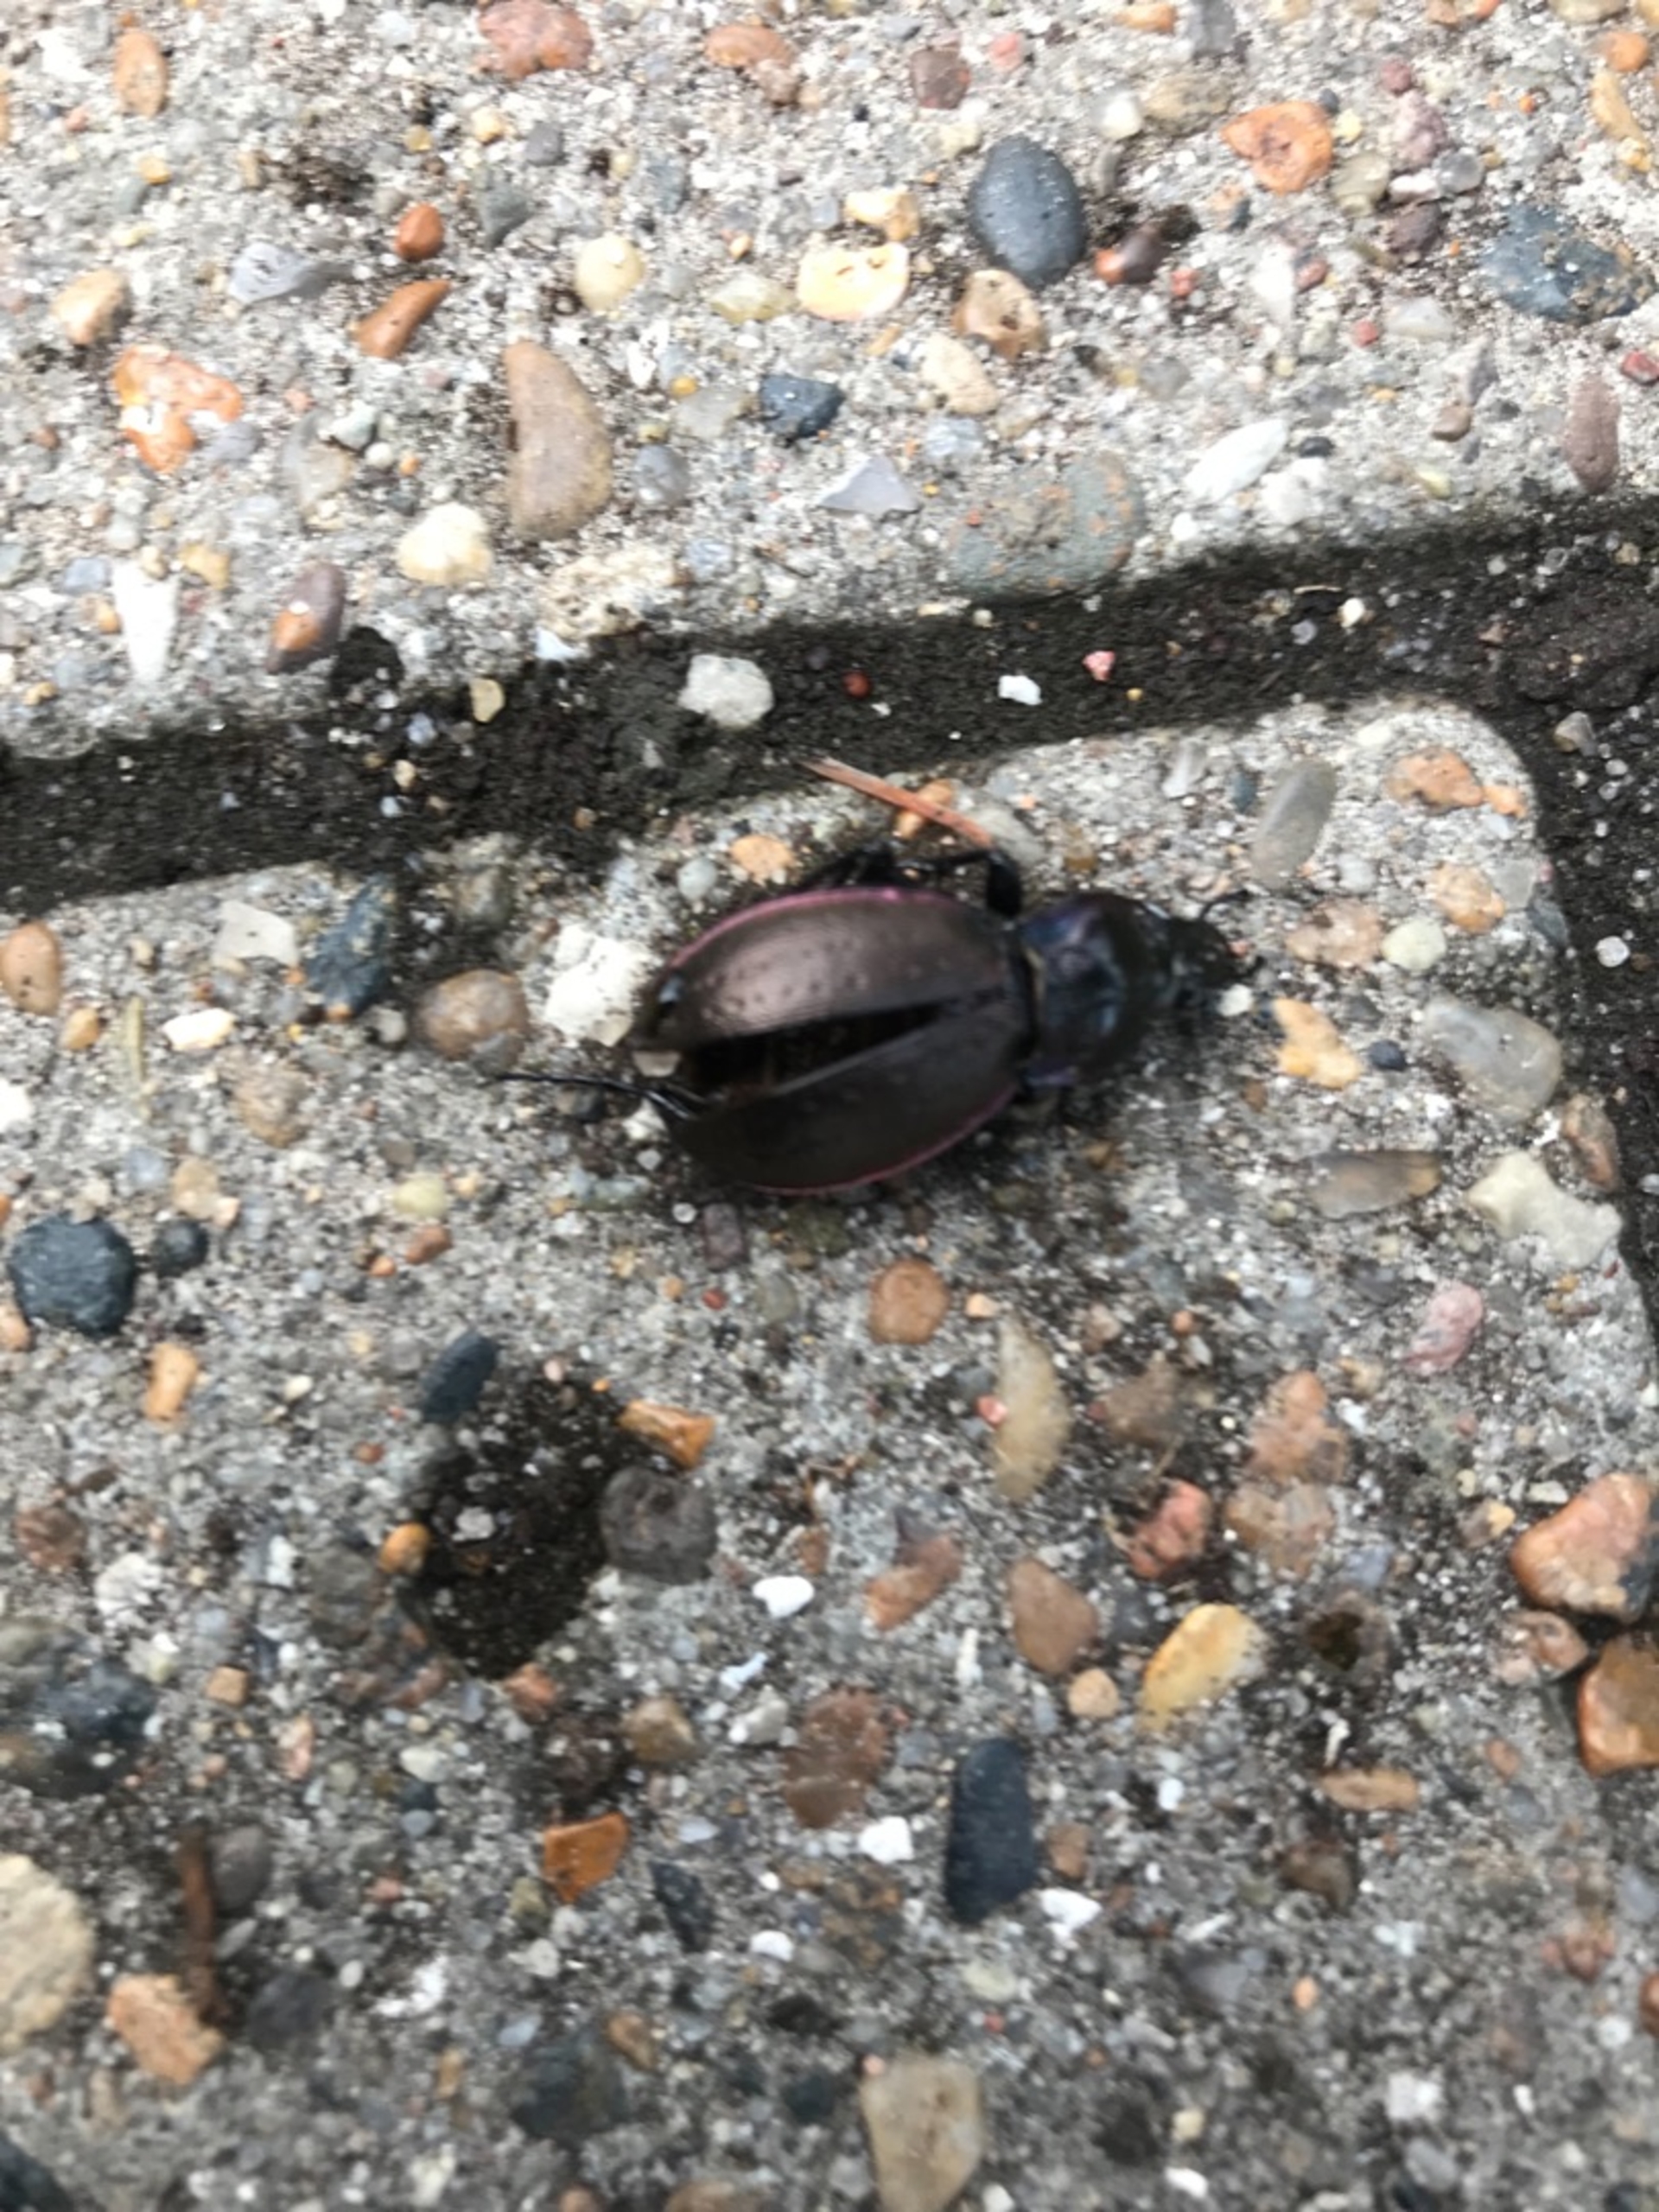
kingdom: Animalia
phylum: Arthropoda
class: Insecta
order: Coleoptera
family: Carabidae
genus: Carabus
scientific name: Carabus nemoralis
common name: Kratløber
